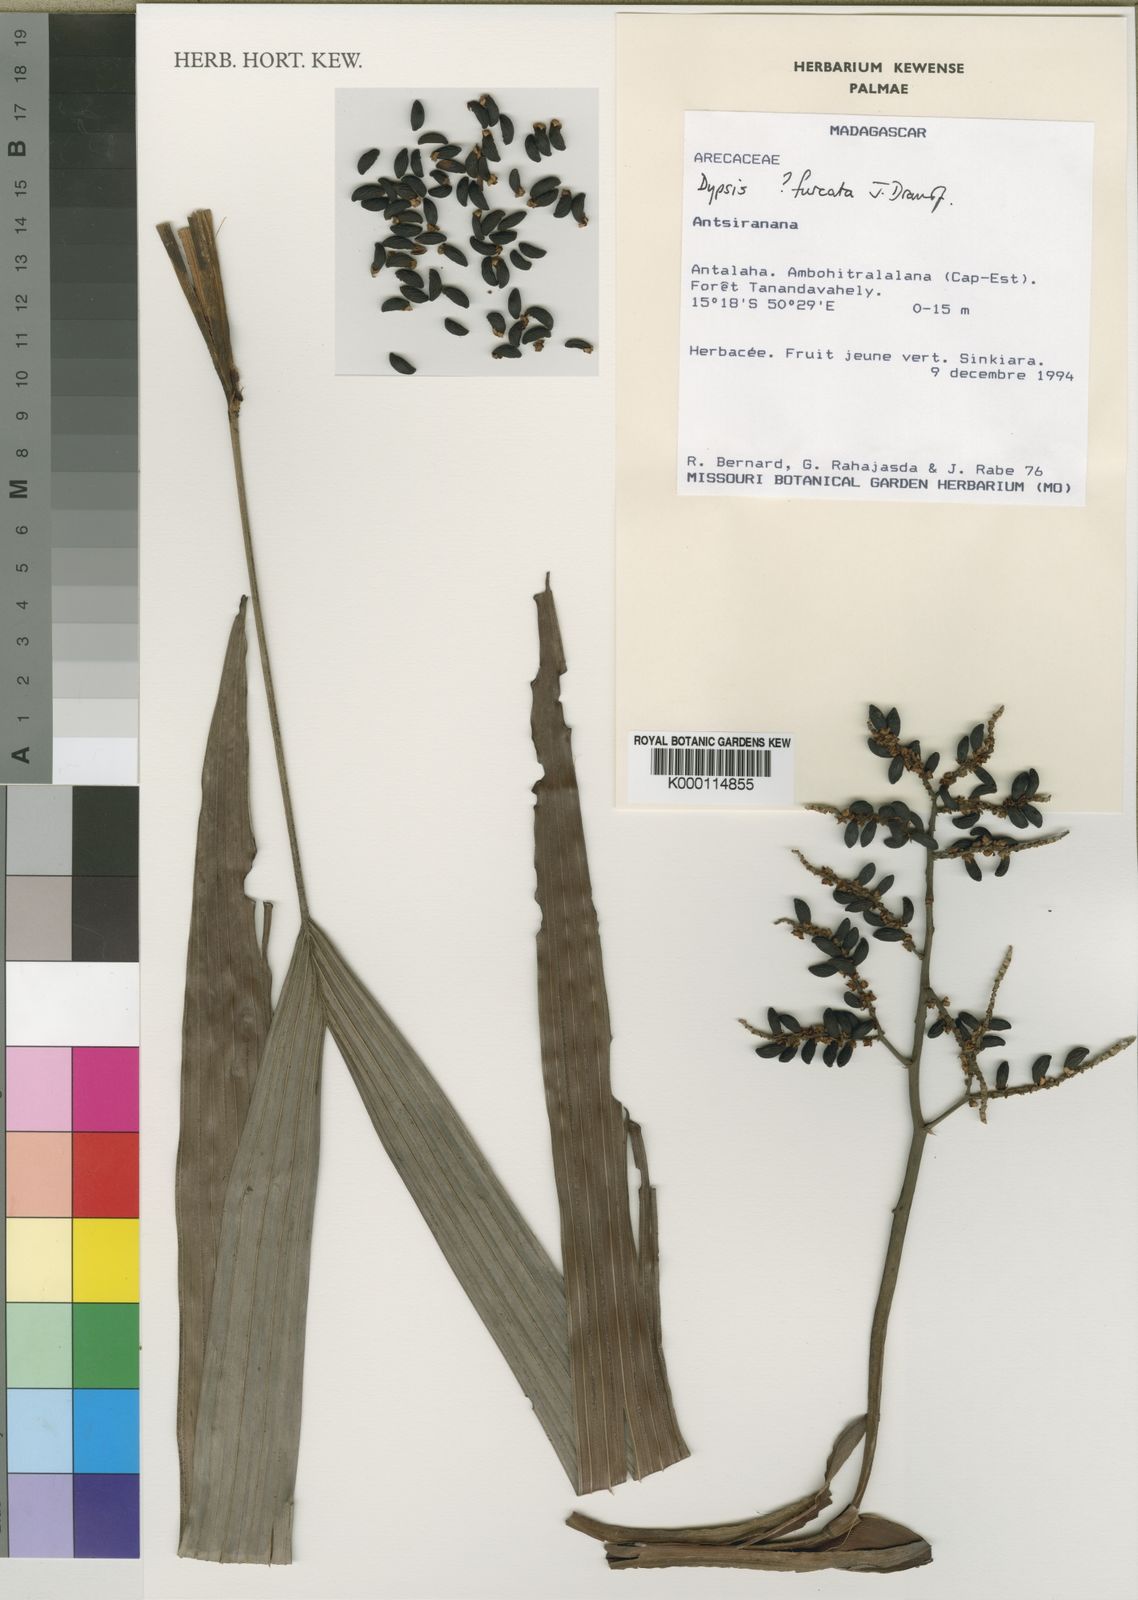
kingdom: Plantae
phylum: Tracheophyta
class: Liliopsida
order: Arecales
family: Arecaceae
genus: Dypsis
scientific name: Dypsis furcata
